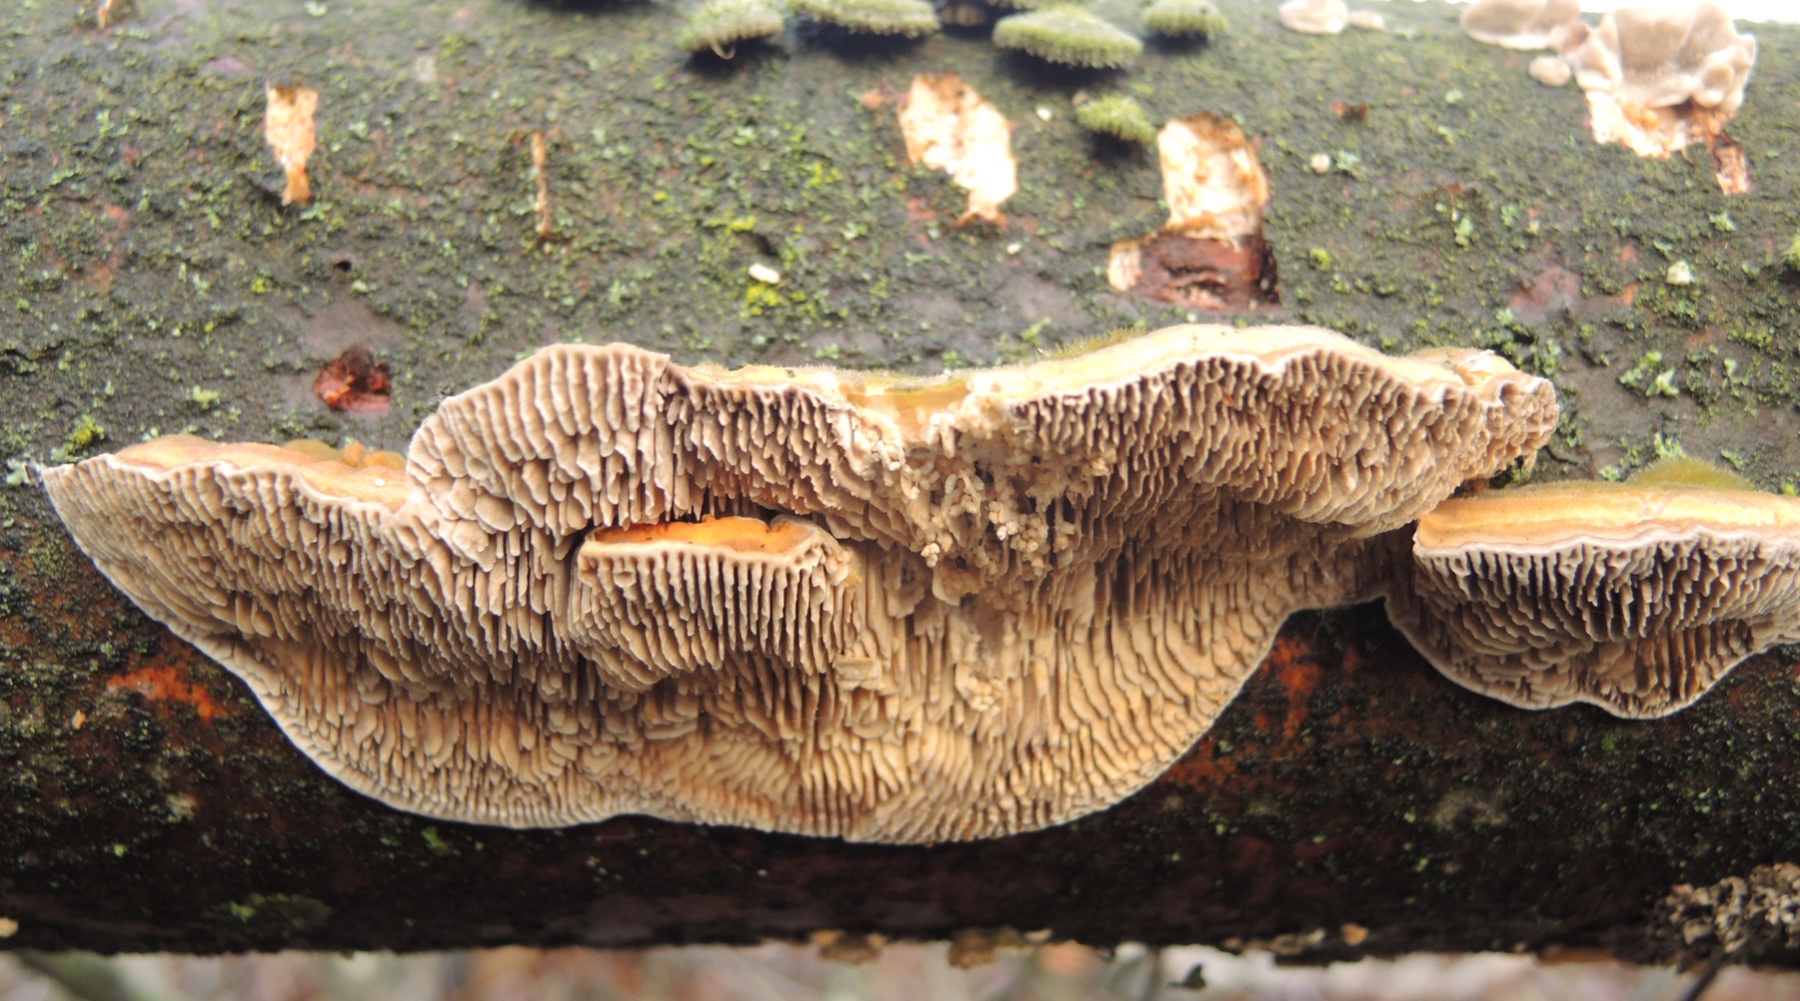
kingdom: Fungi
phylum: Basidiomycota
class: Agaricomycetes
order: Polyporales
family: Polyporaceae
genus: Lenzites
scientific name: Lenzites betulinus
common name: birke-læderporesvamp
